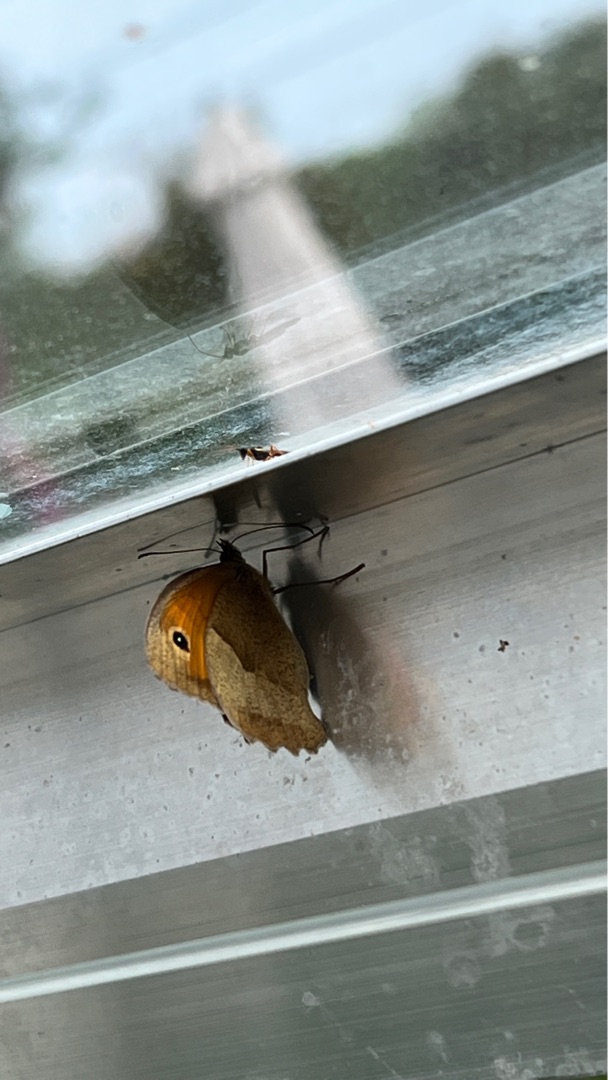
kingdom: Animalia
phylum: Arthropoda
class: Insecta
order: Lepidoptera
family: Nymphalidae
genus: Maniola
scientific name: Maniola jurtina
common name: Græsrandøje
